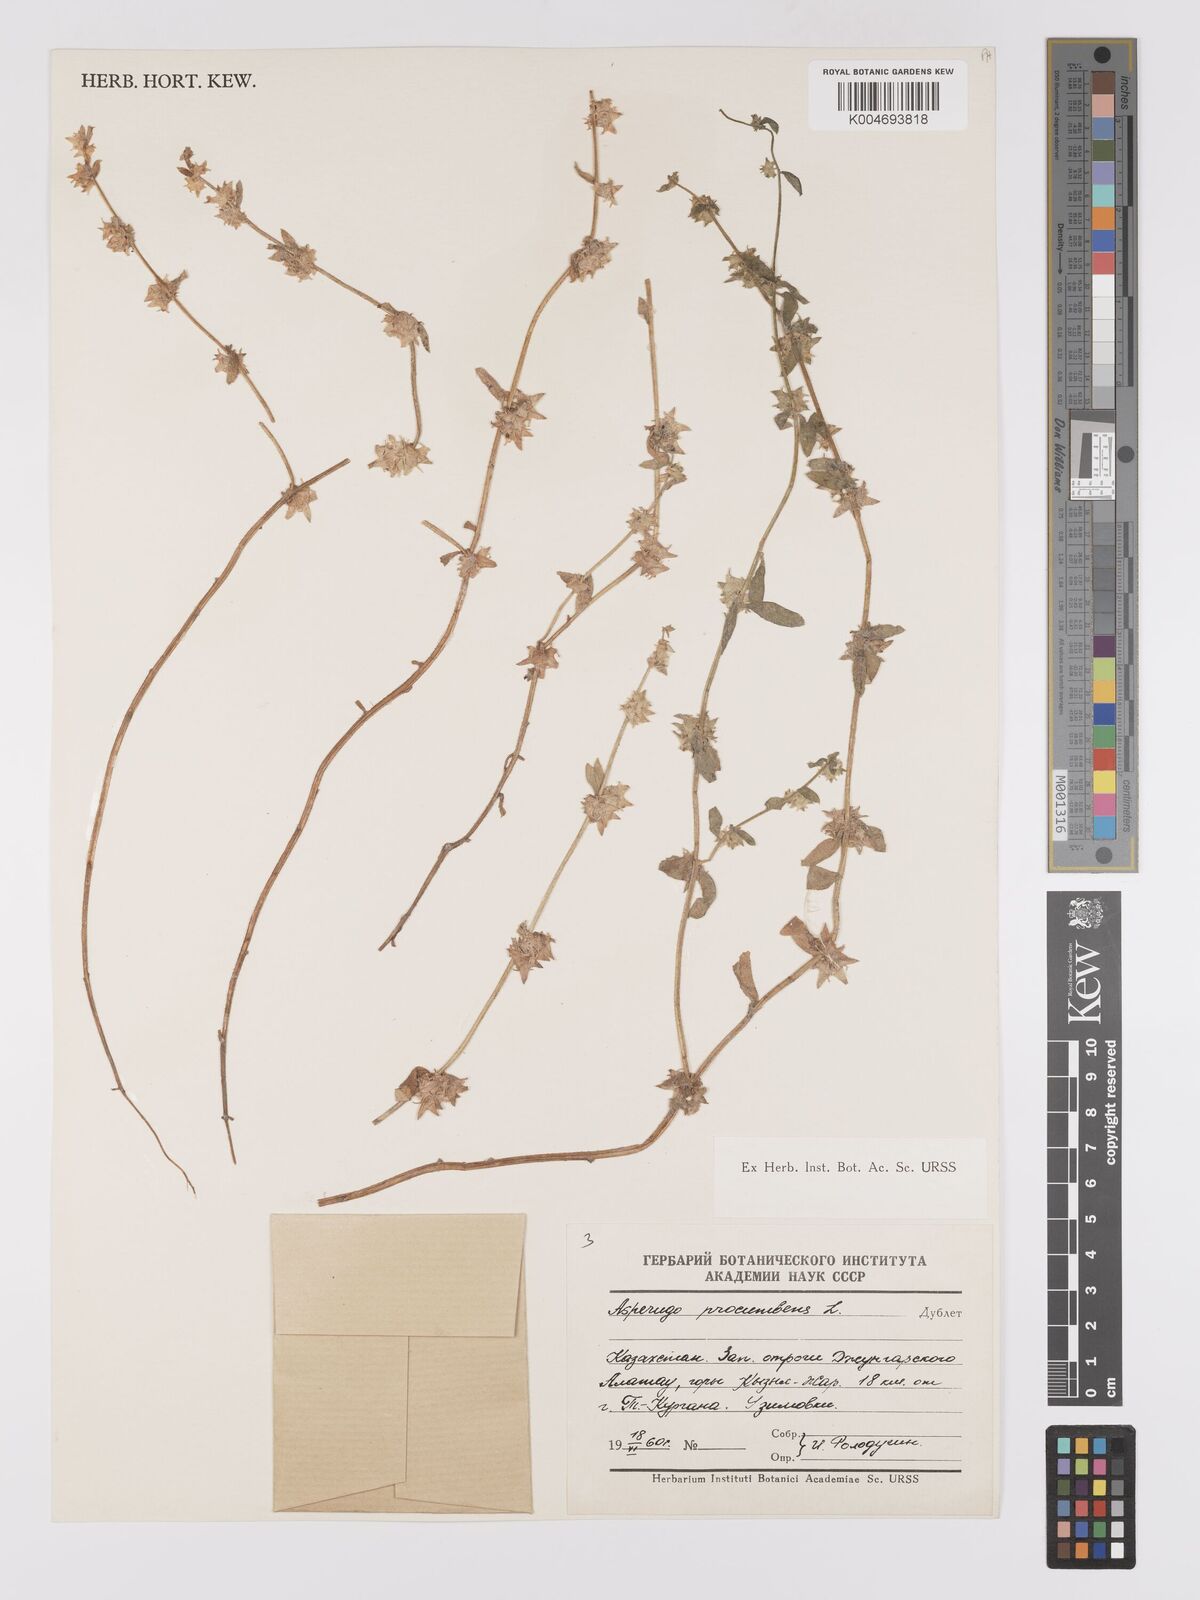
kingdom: Plantae
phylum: Tracheophyta
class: Magnoliopsida
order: Boraginales
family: Boraginaceae
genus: Asperugo
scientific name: Asperugo procumbens
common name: Madwort
